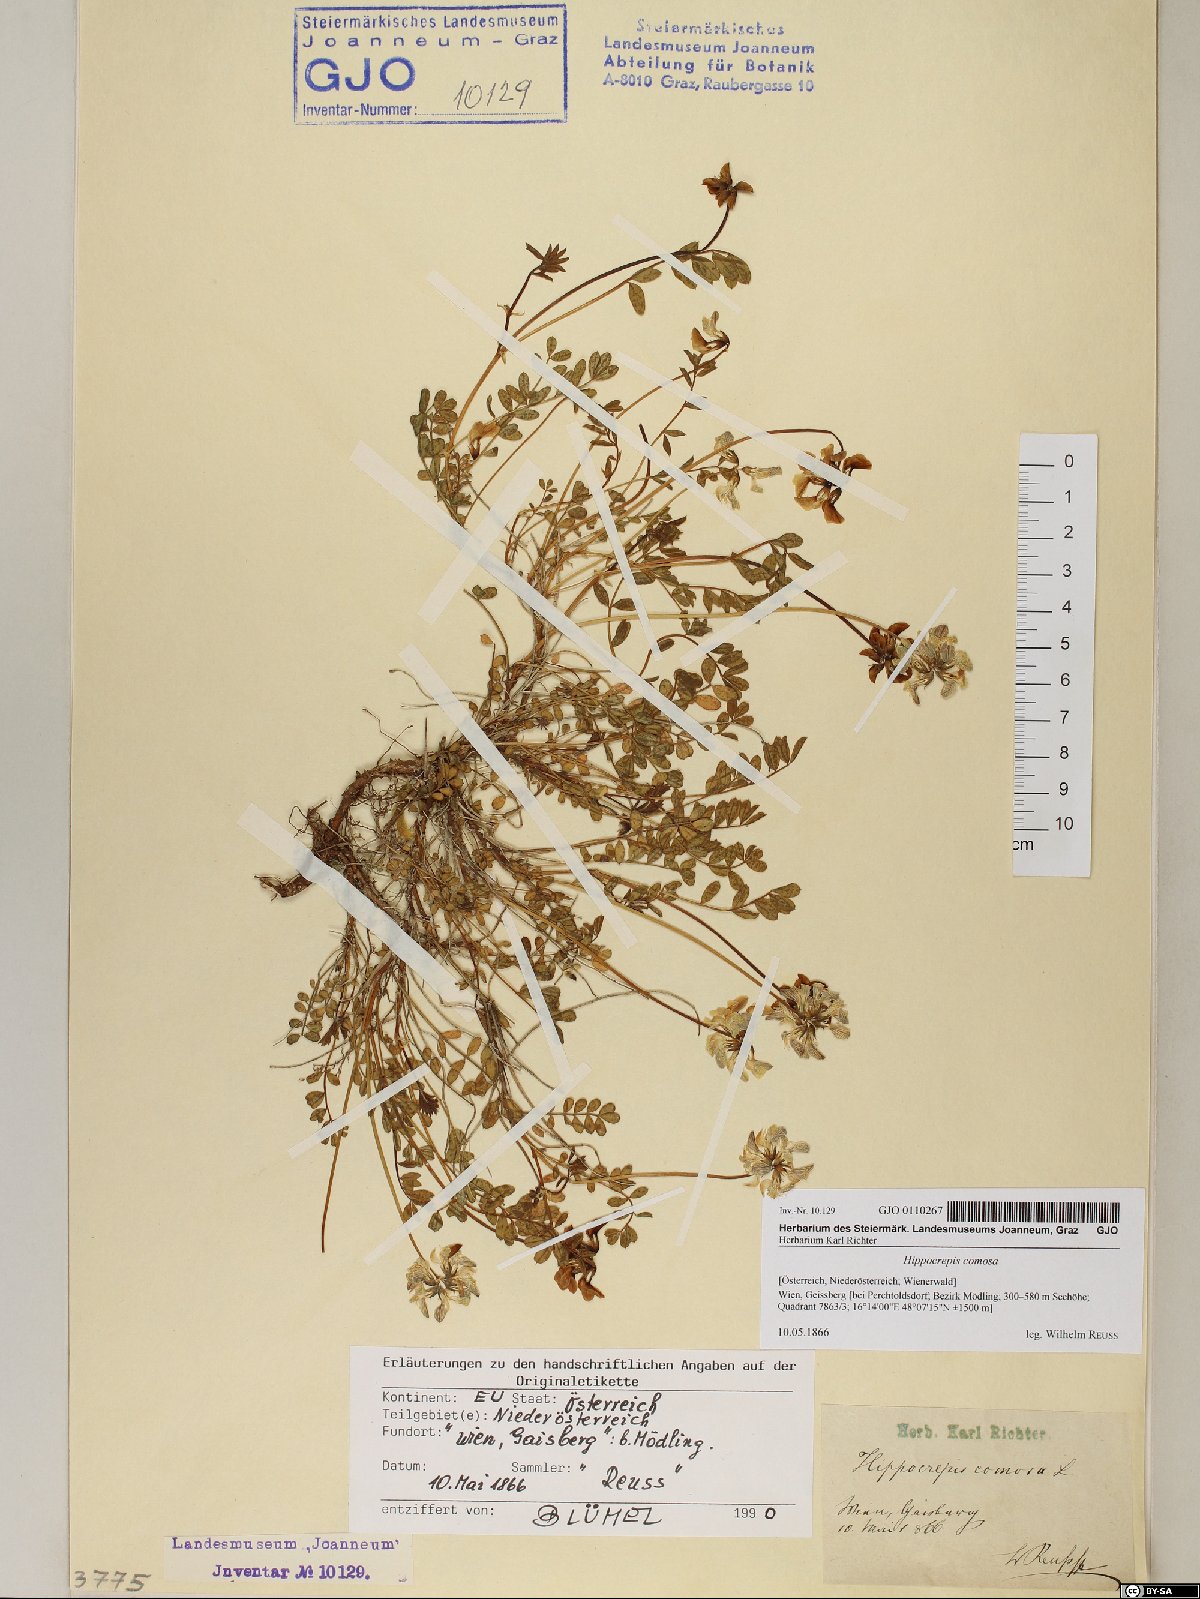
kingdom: Plantae
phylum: Tracheophyta
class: Magnoliopsida
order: Fabales
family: Fabaceae
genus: Hippocrepis
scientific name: Hippocrepis comosa
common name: Horseshoe vetch
